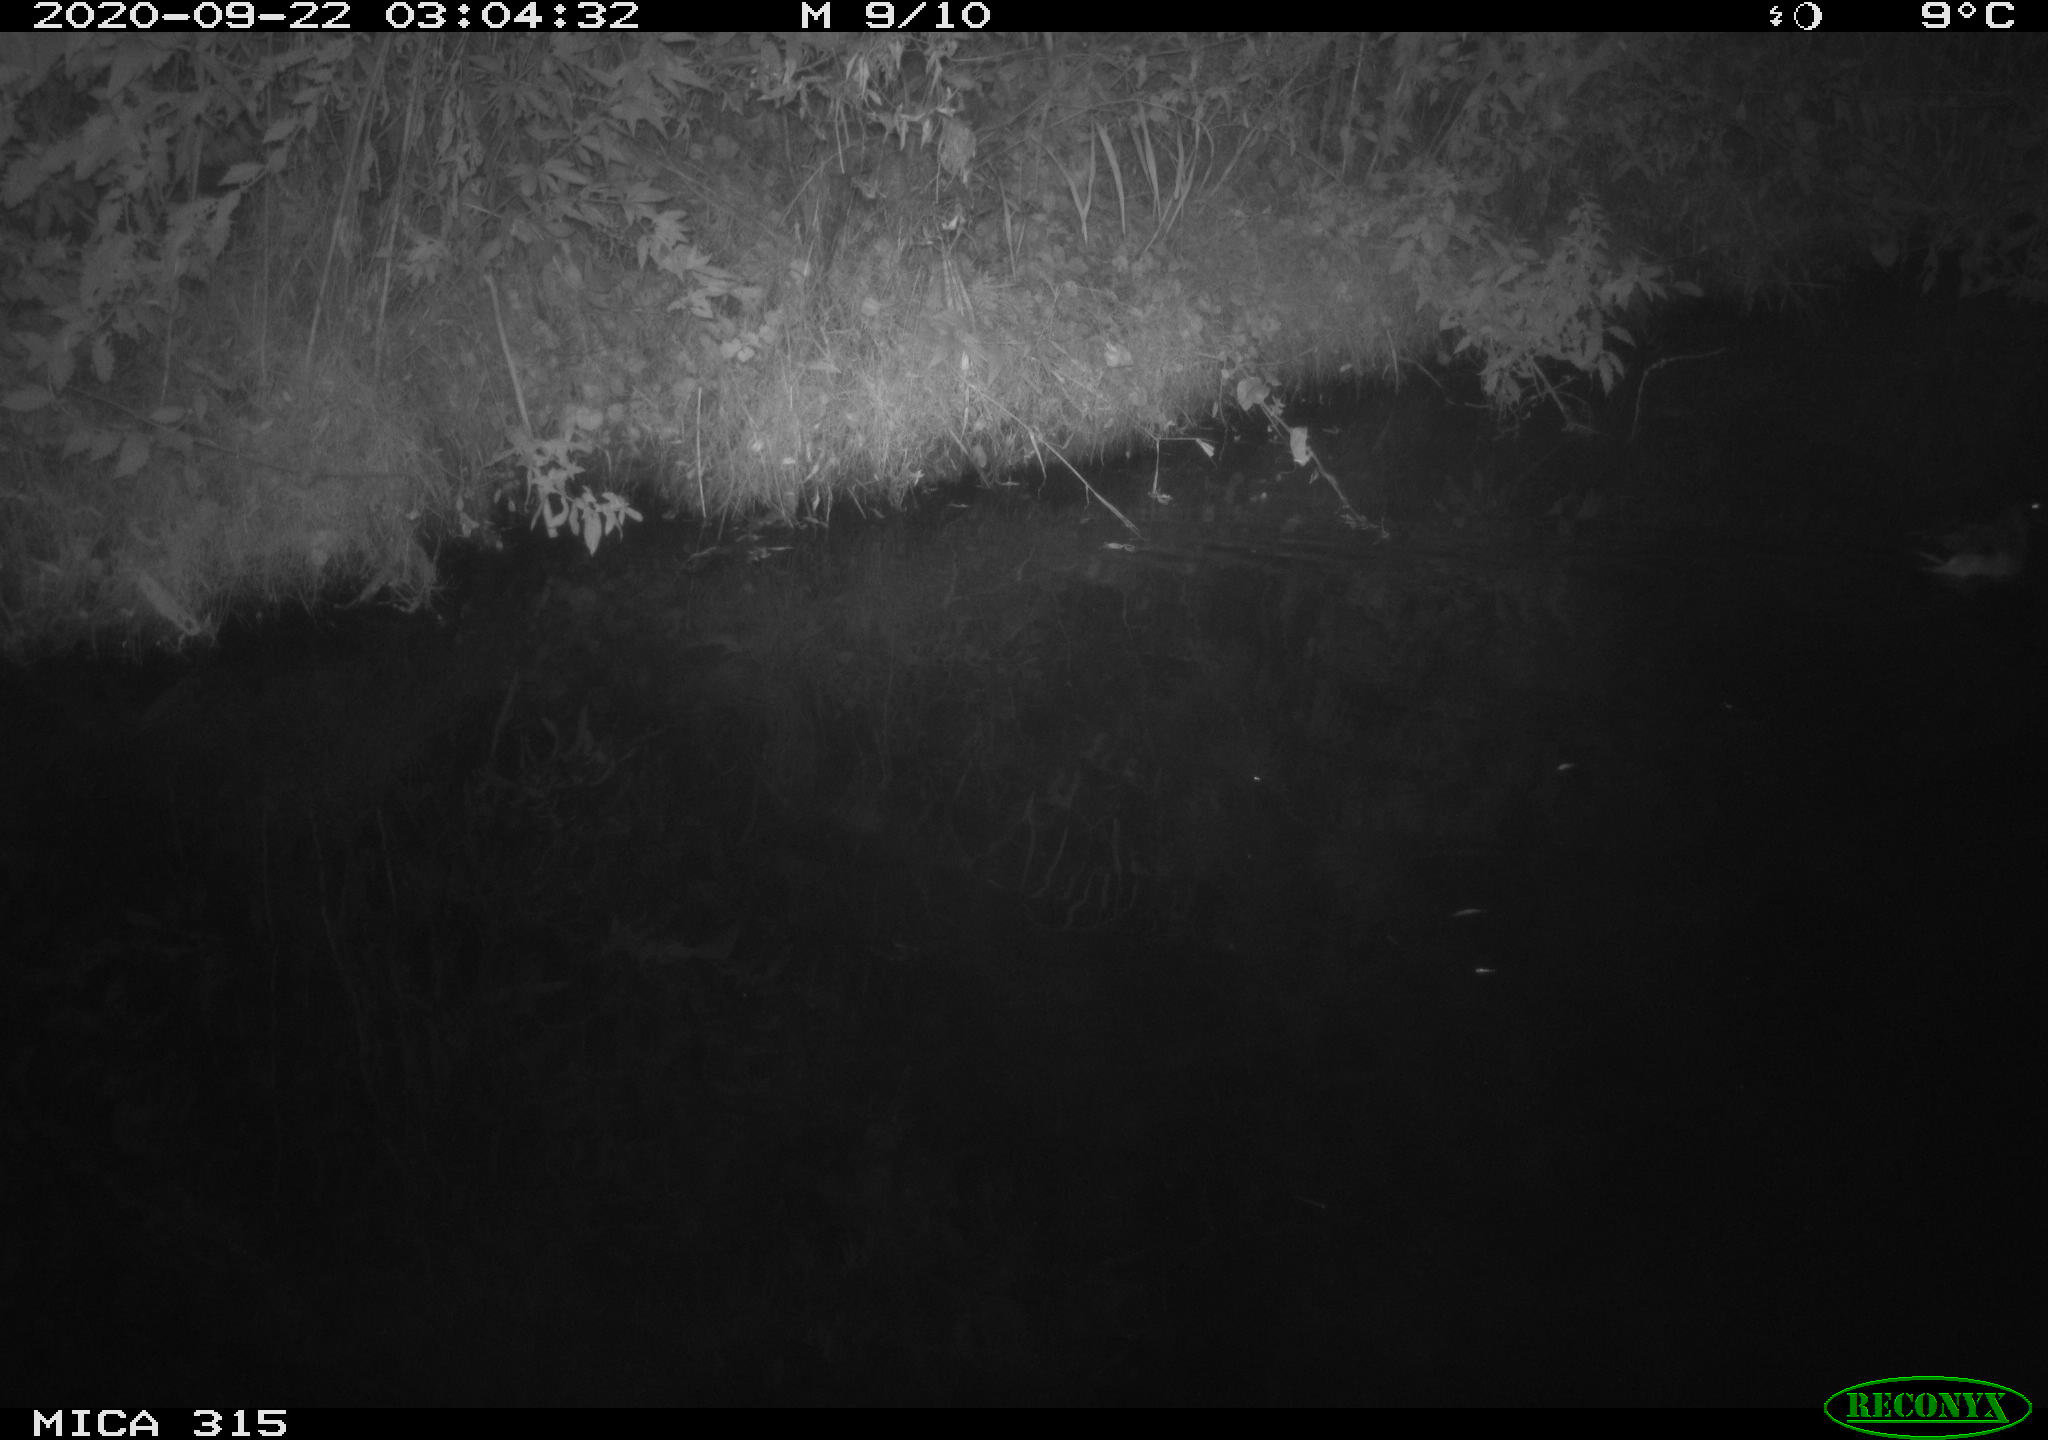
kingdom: Animalia
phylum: Chordata
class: Aves
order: Anseriformes
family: Anatidae
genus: Anas
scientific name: Anas platyrhynchos
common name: Mallard
